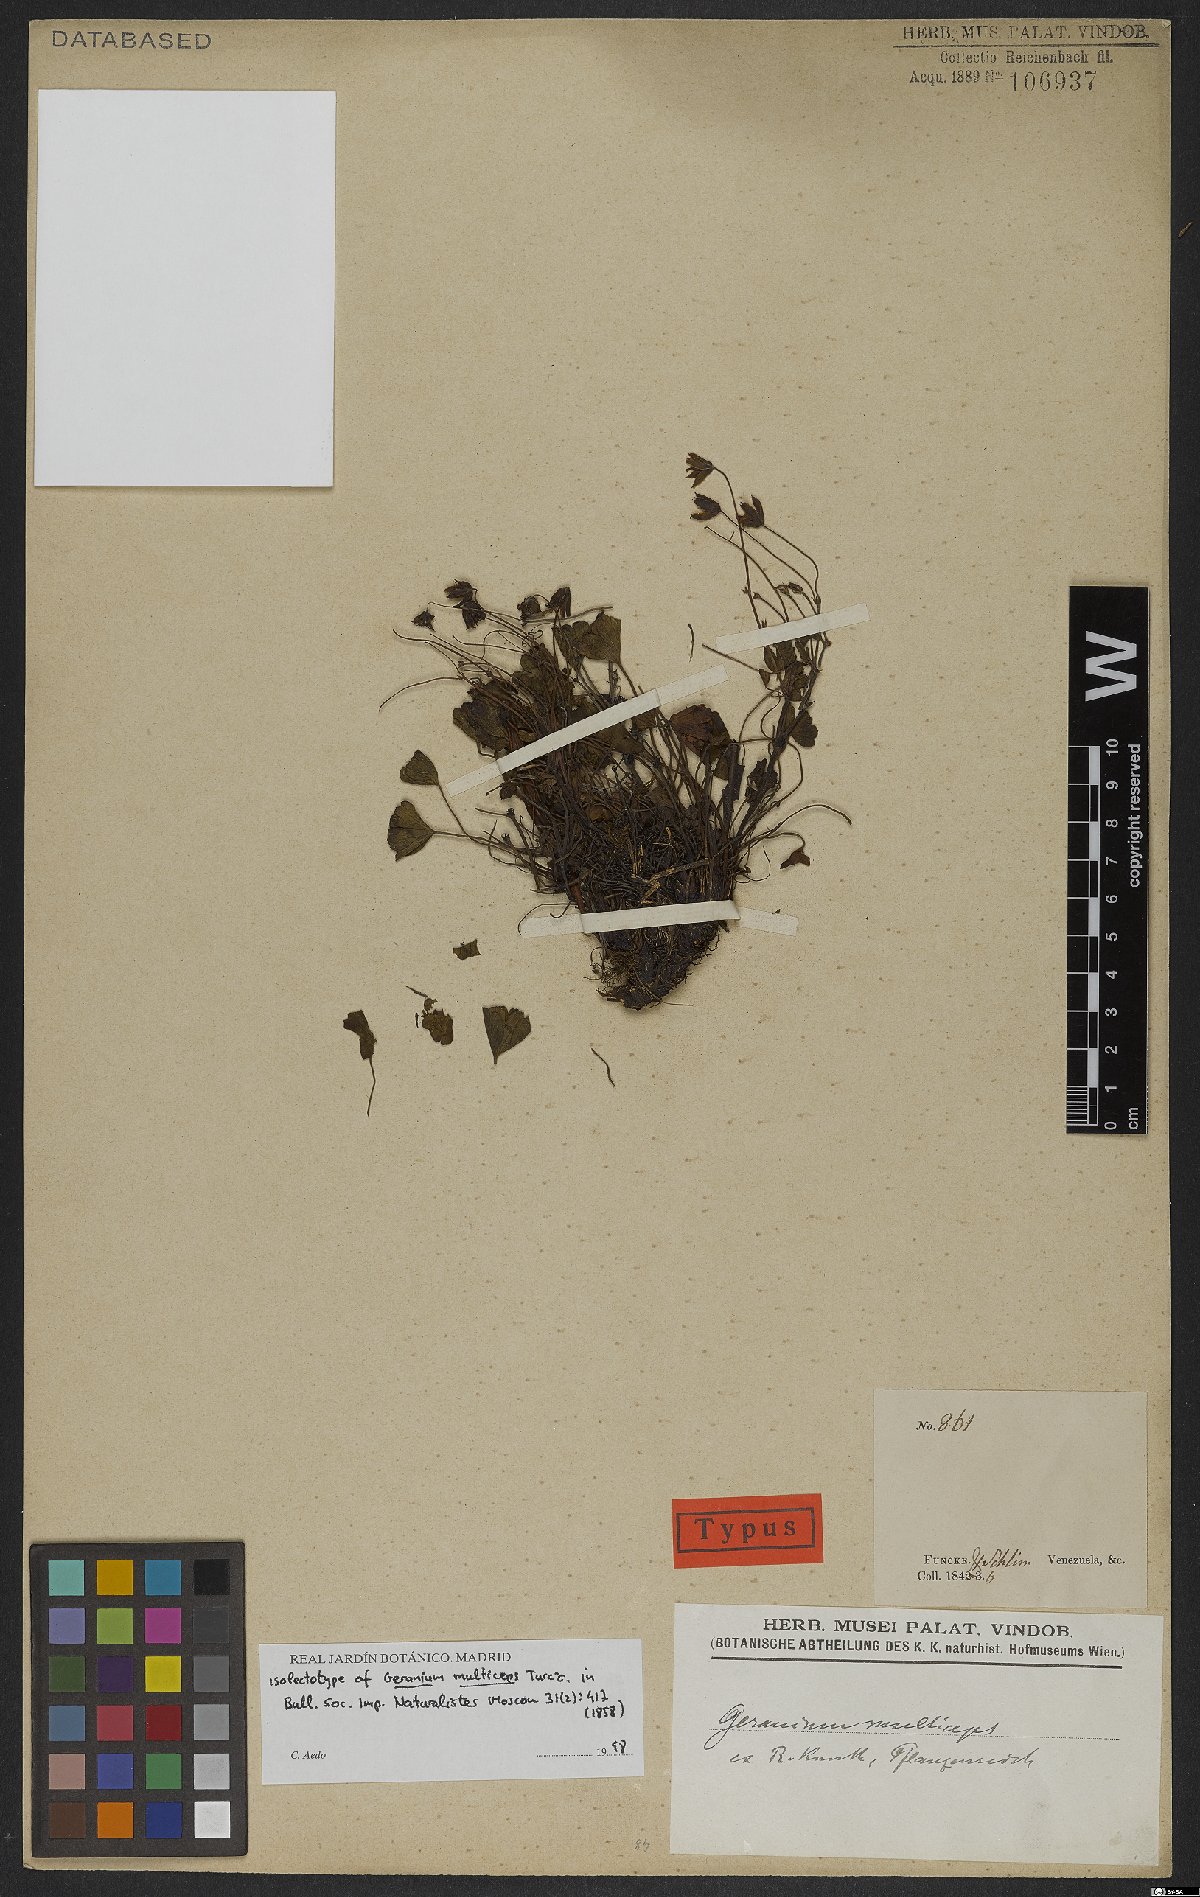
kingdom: Plantae
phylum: Tracheophyta
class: Magnoliopsida
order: Geraniales
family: Geraniaceae
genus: Geranium
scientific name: Geranium multiceps
